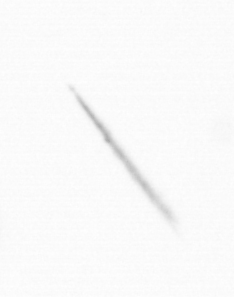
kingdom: Chromista
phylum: Ochrophyta
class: Bacillariophyceae
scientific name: Bacillariophyceae
